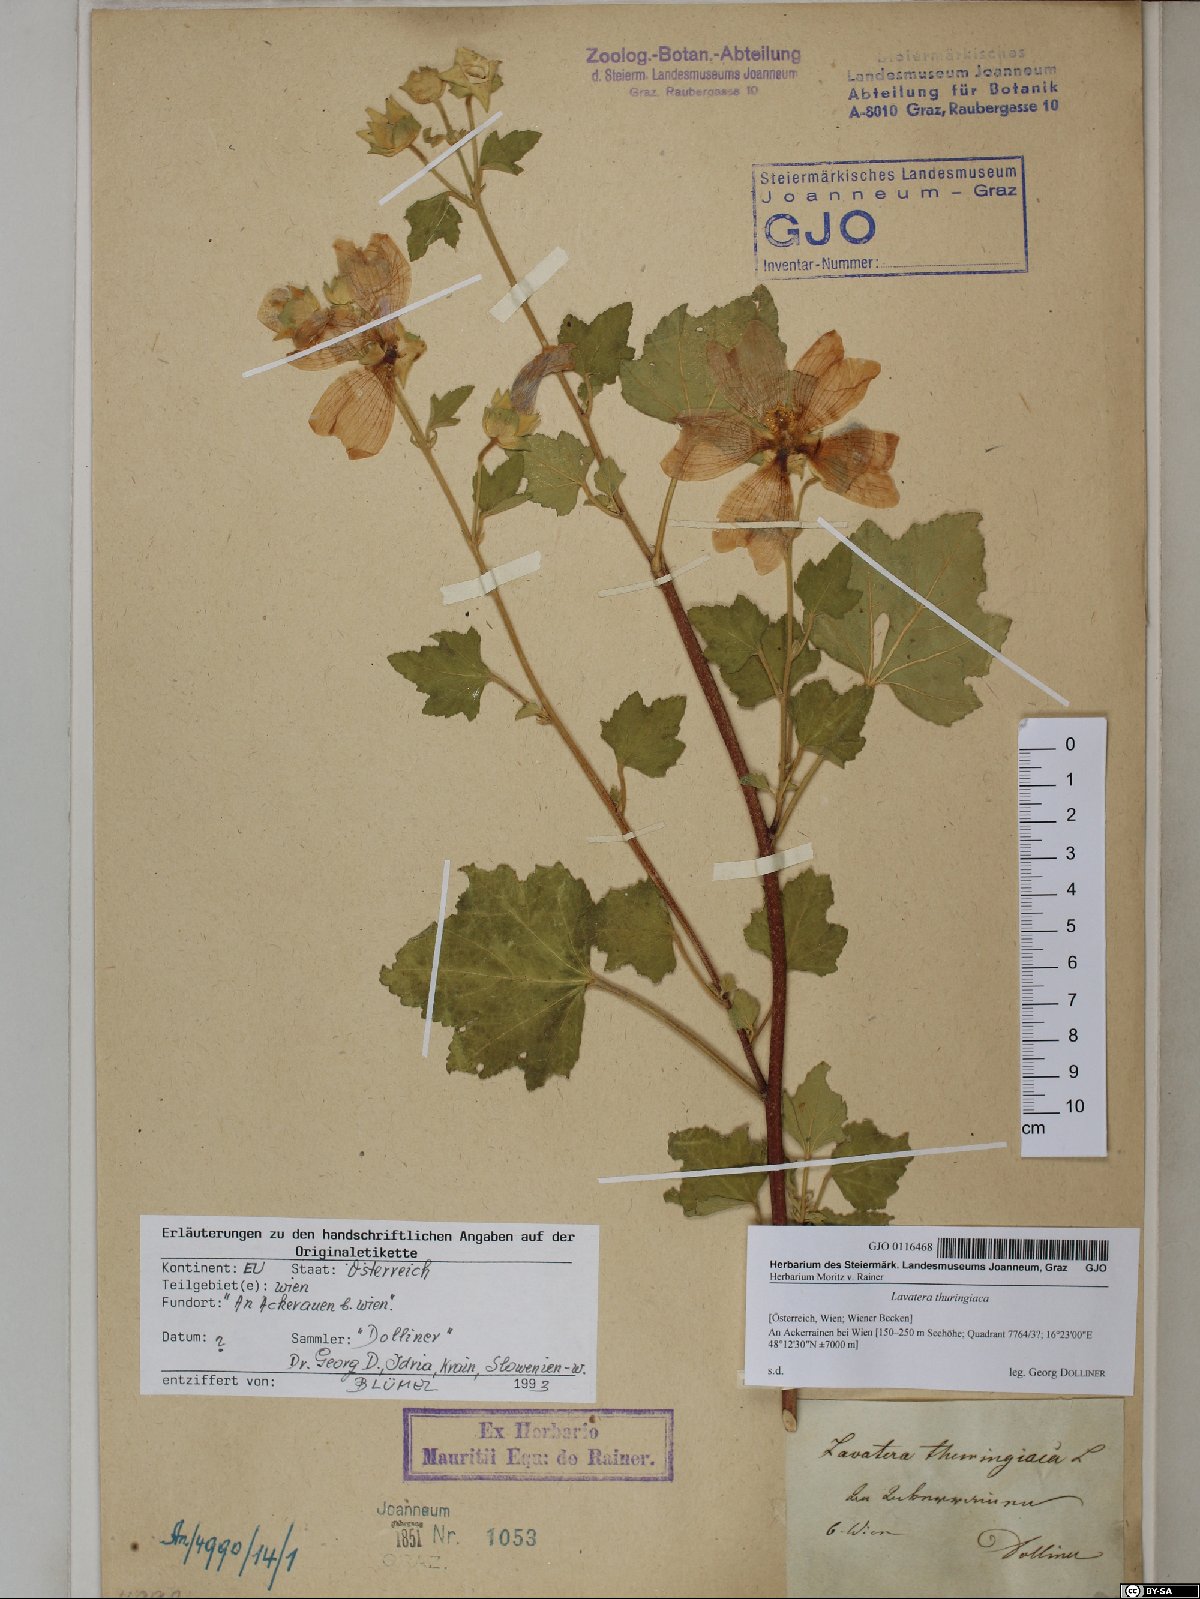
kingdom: Plantae
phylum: Tracheophyta
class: Magnoliopsida
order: Malvales
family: Malvaceae
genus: Malva
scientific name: Malva thuringiaca
